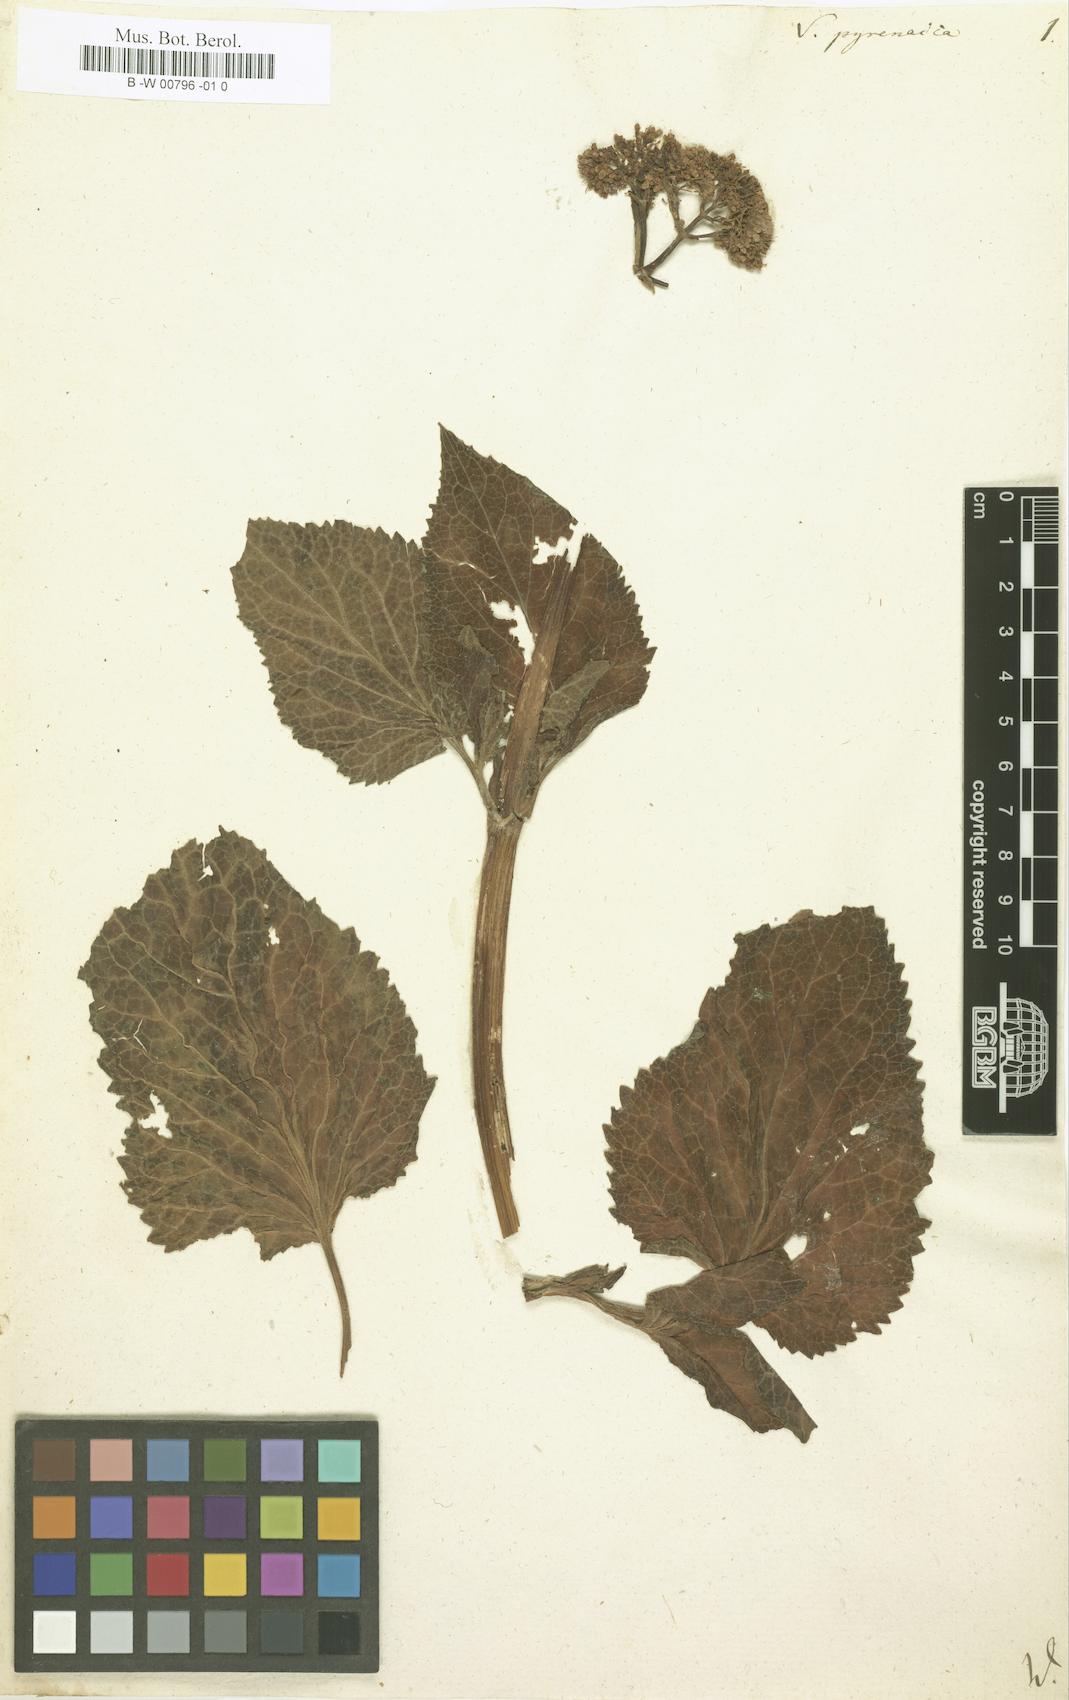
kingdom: Plantae
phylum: Tracheophyta
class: Magnoliopsida
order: Dipsacales
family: Caprifoliaceae
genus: Valeriana
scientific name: Valeriana pyrenaica
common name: Pyrenean valerian
